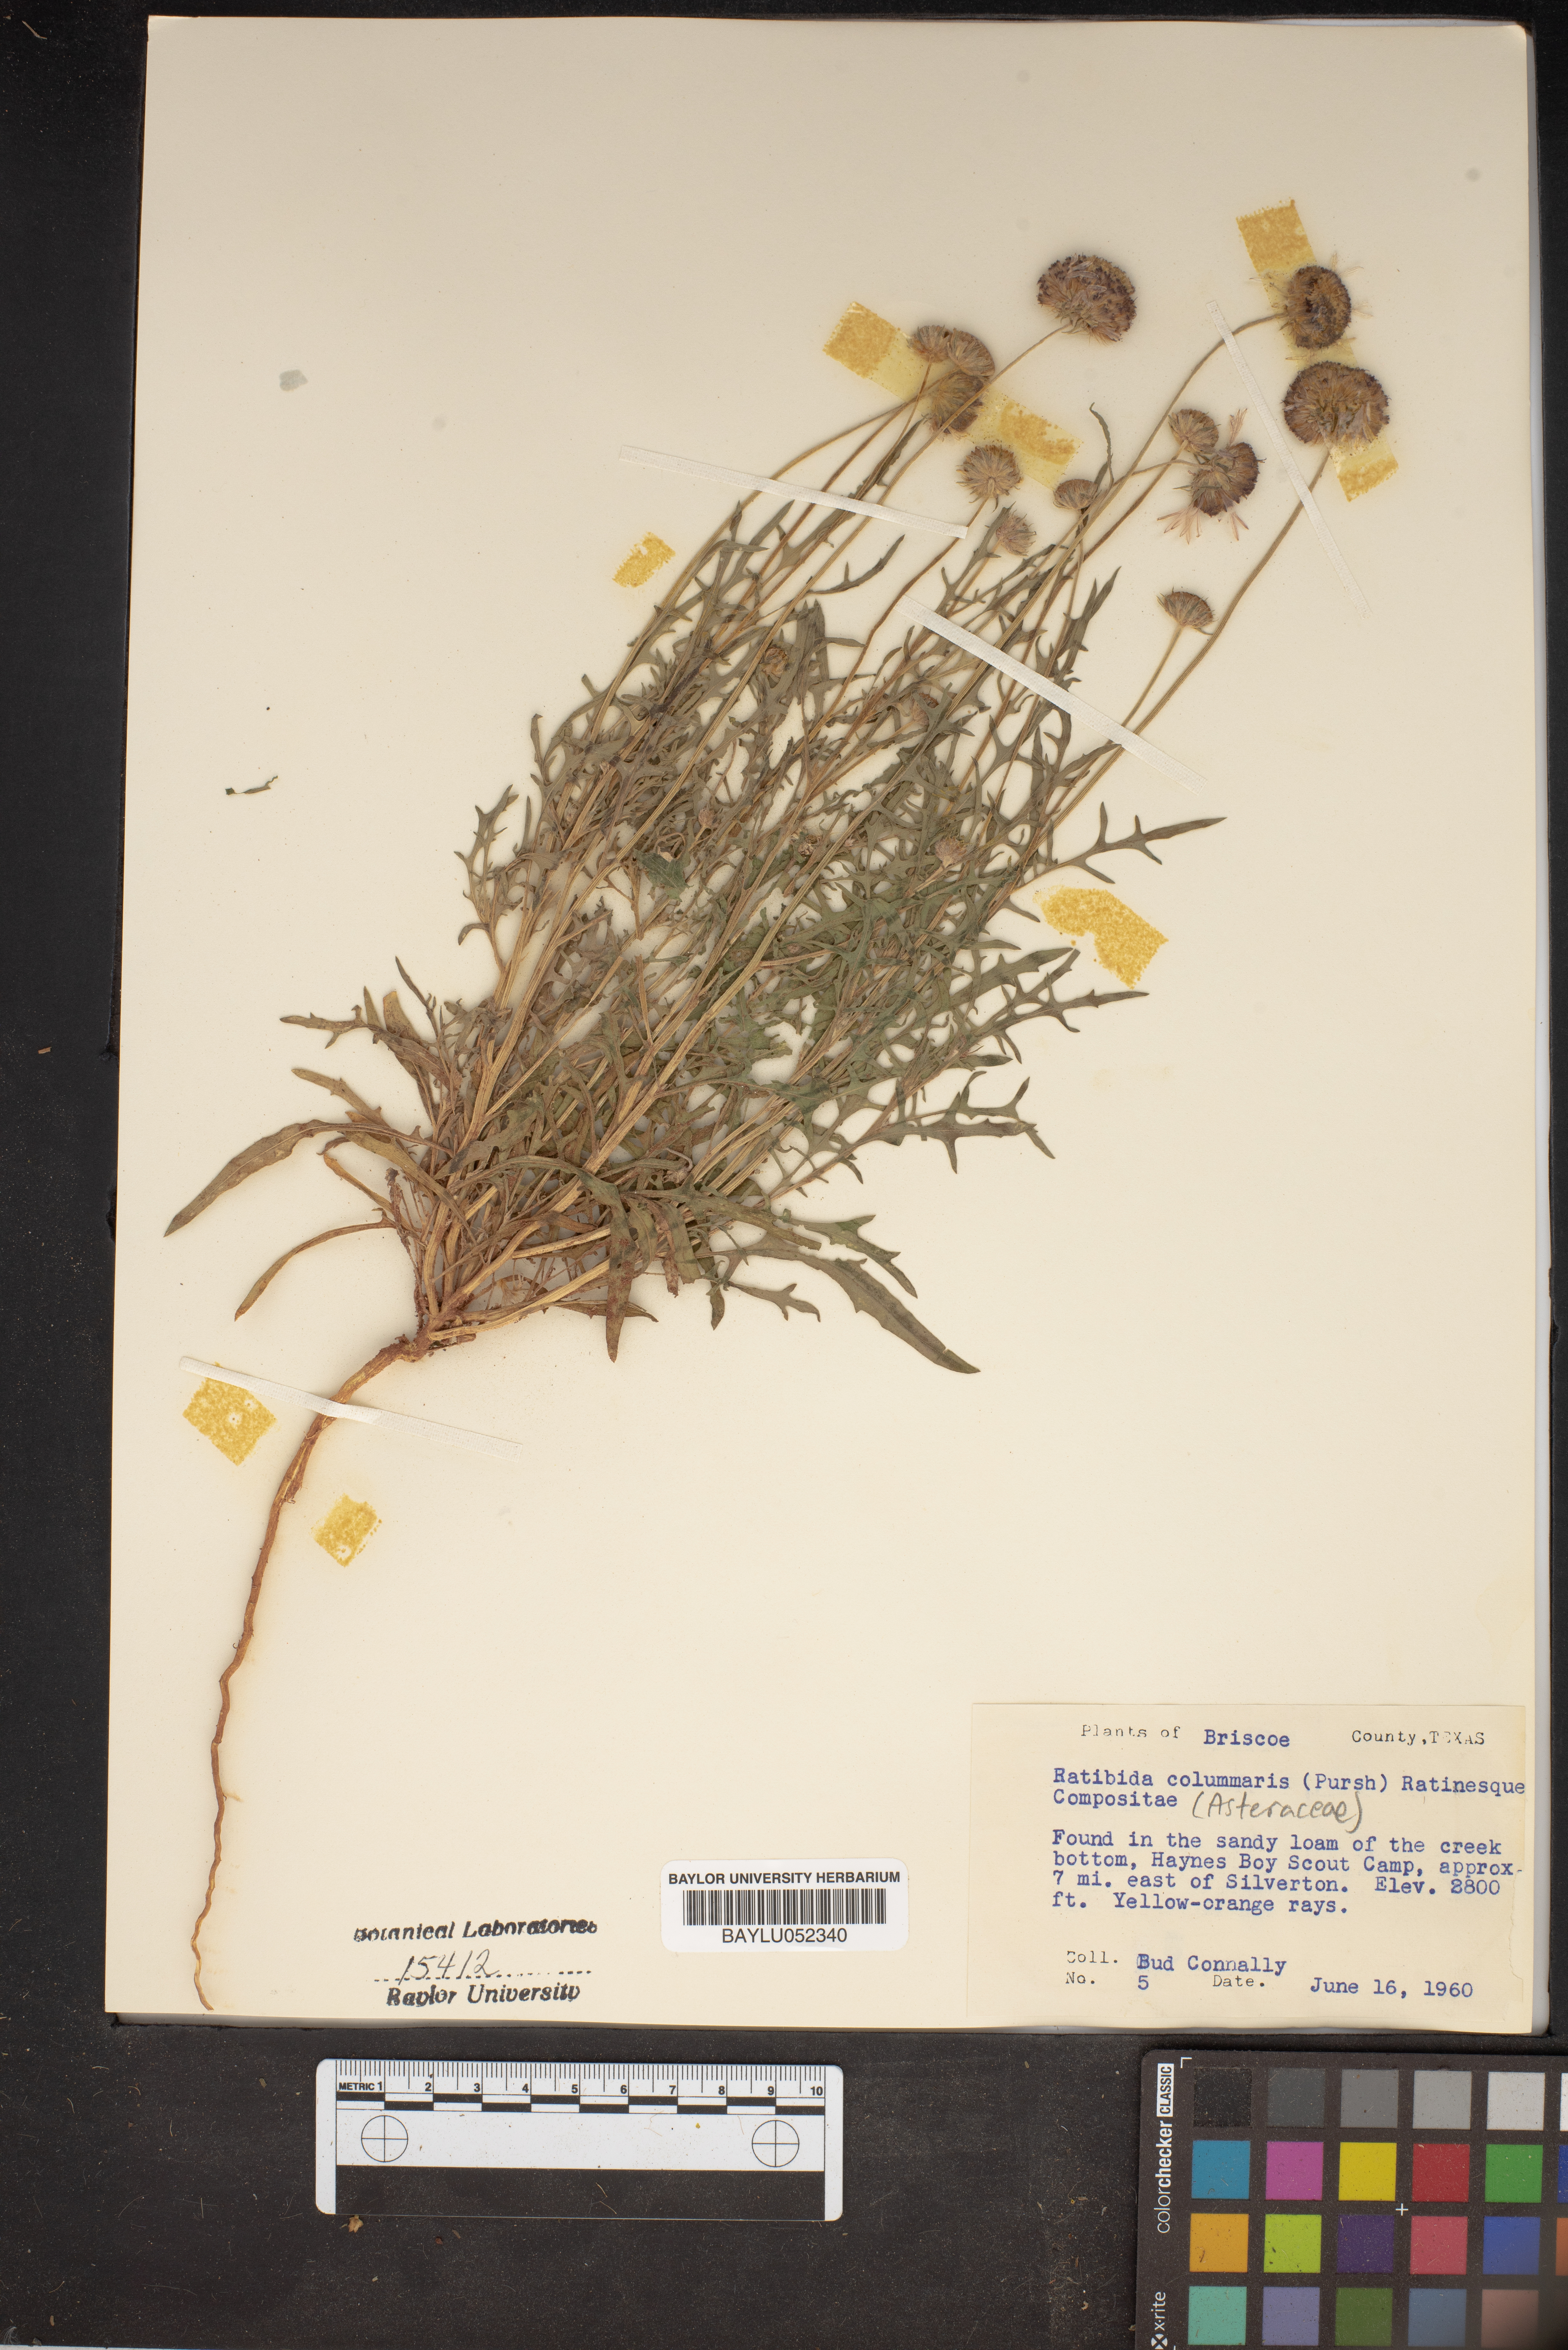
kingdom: Plantae
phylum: Tracheophyta
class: Magnoliopsida
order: Asterales
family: Asteraceae
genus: Ratibida
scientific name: Ratibida columnifera
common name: Prairie coneflower
